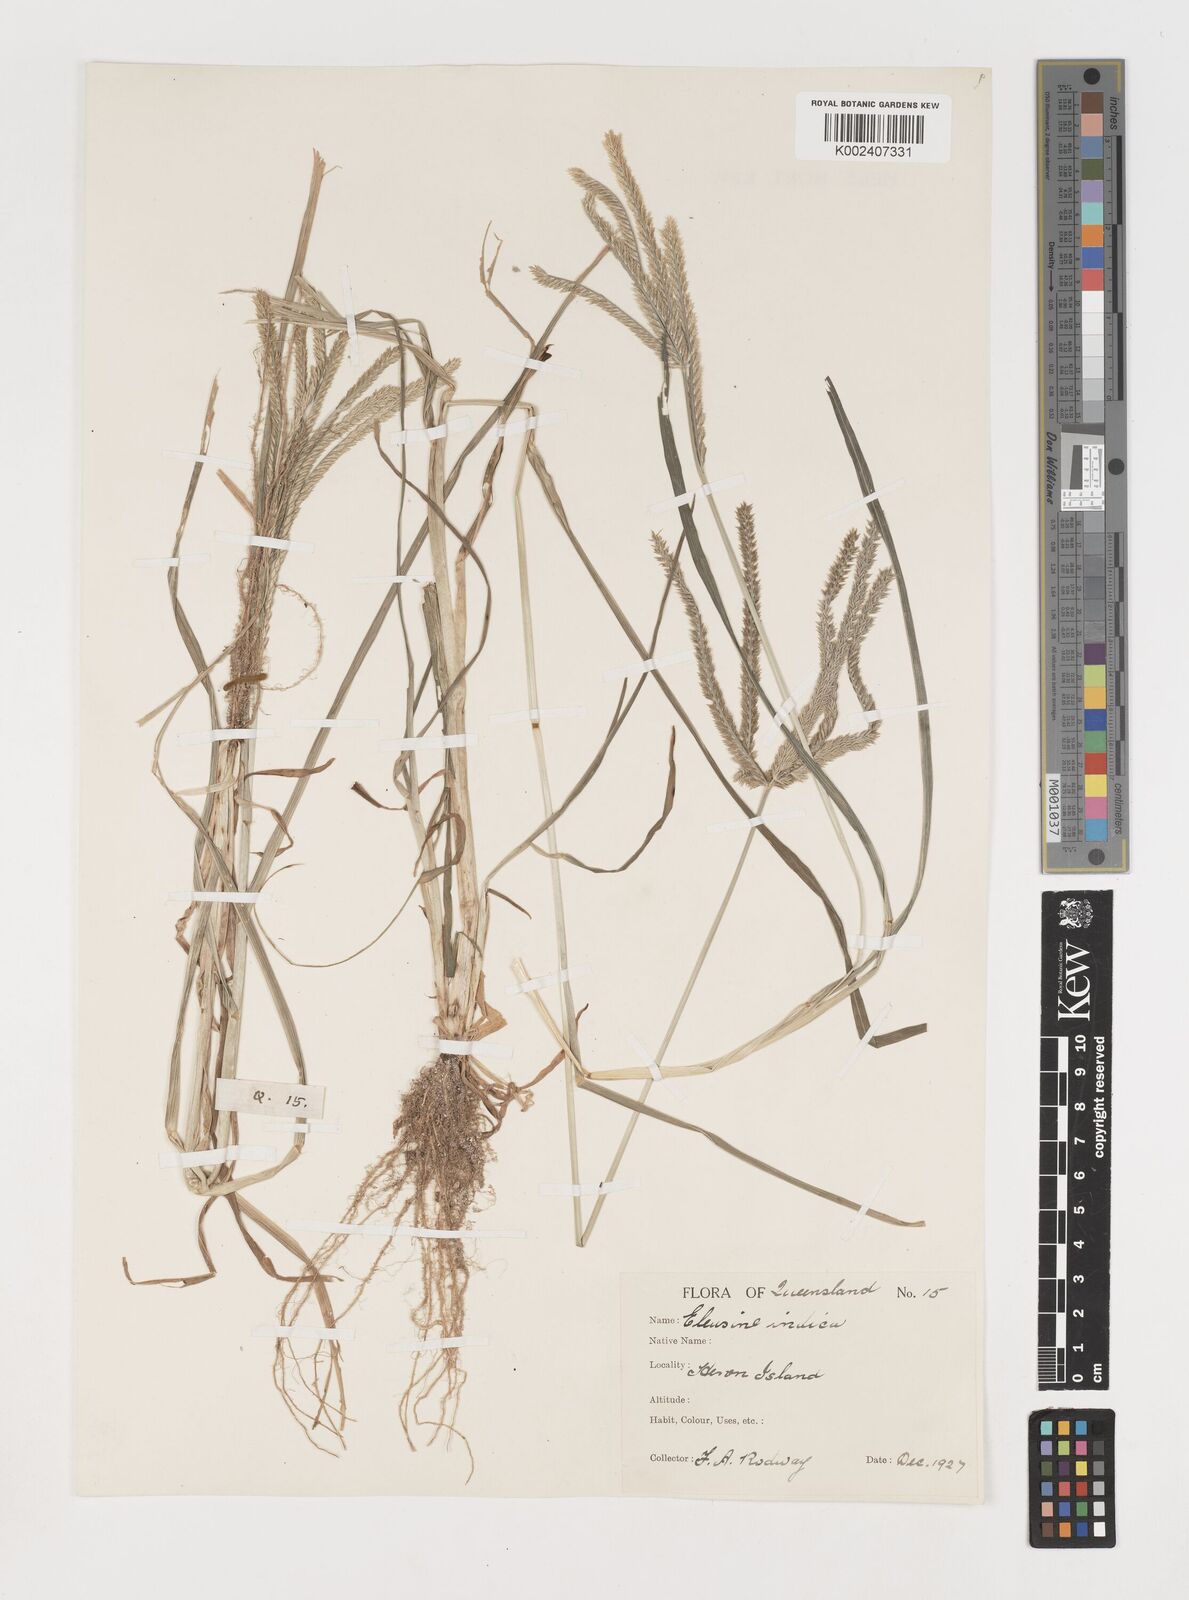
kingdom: Plantae
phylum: Tracheophyta
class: Liliopsida
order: Poales
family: Poaceae
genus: Eleusine
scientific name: Eleusine indica
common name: Yard-grass
